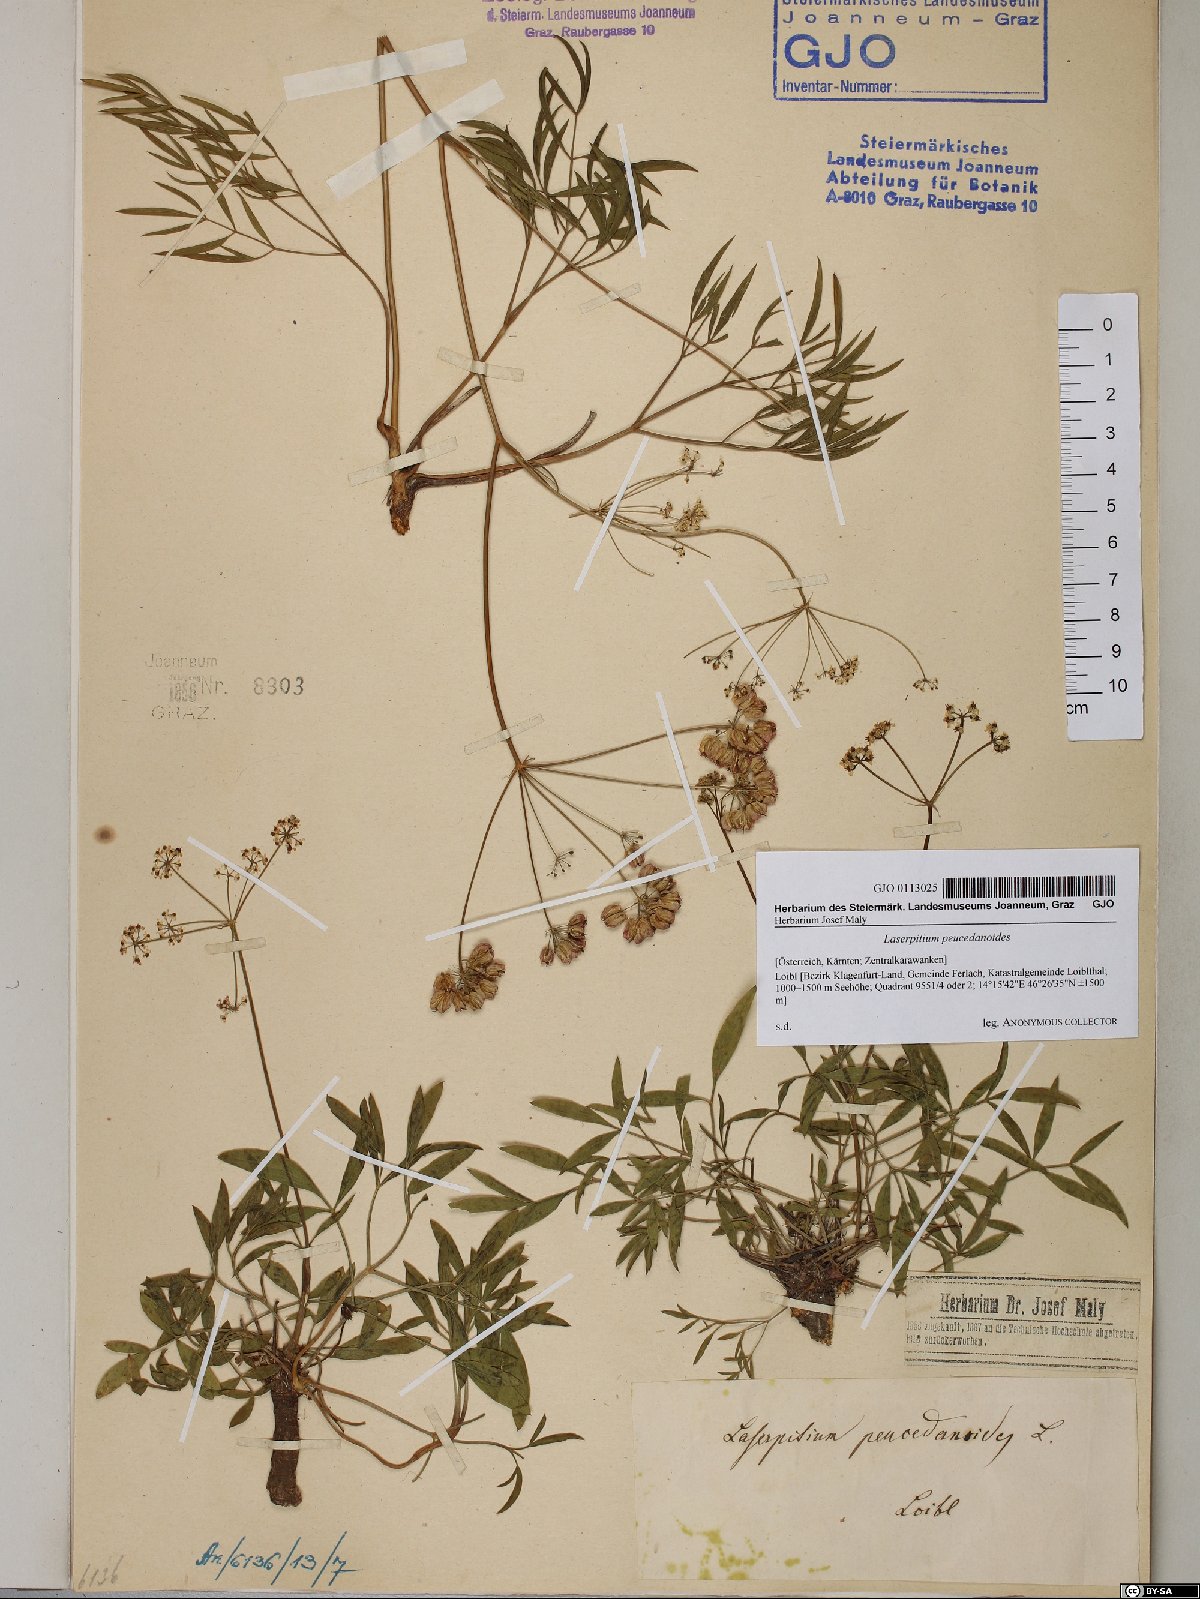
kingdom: Plantae
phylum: Tracheophyta
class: Magnoliopsida
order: Apiales
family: Apiaceae
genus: Laserpitium
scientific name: Laserpitium peucedanoides
